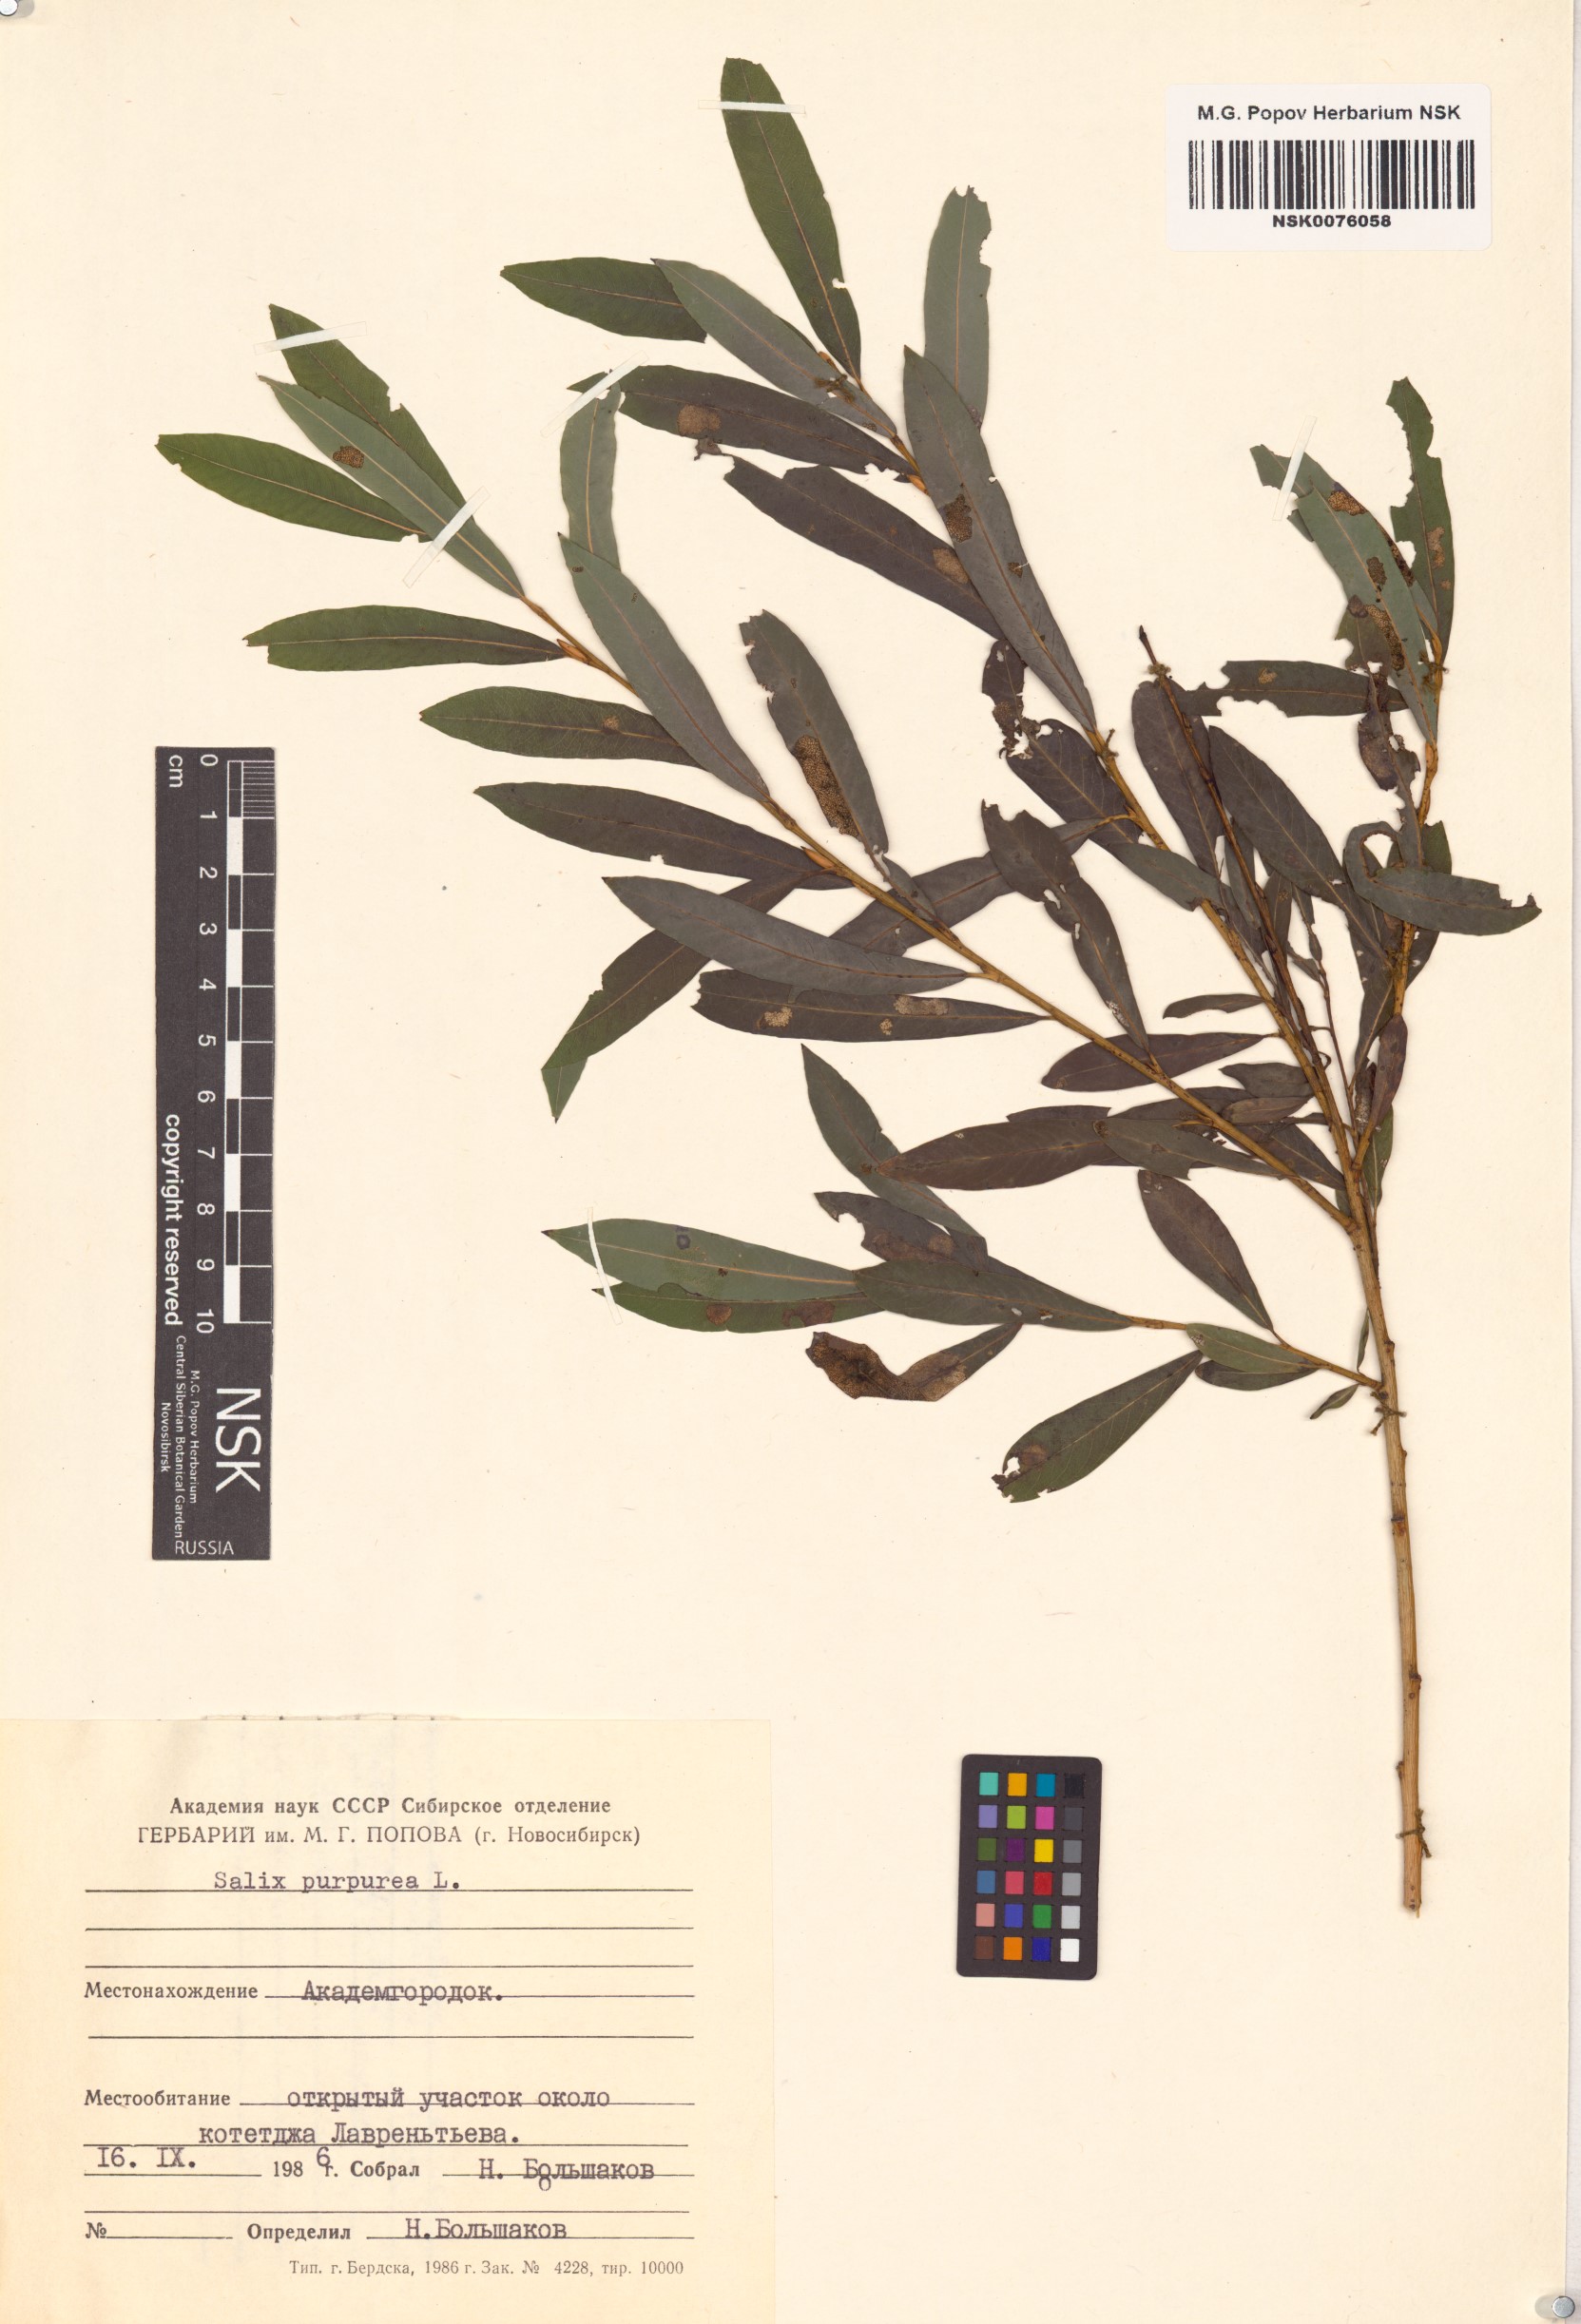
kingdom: Plantae
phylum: Tracheophyta
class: Magnoliopsida
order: Malpighiales
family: Salicaceae
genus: Salix
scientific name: Salix purpurea
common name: Purple willow
